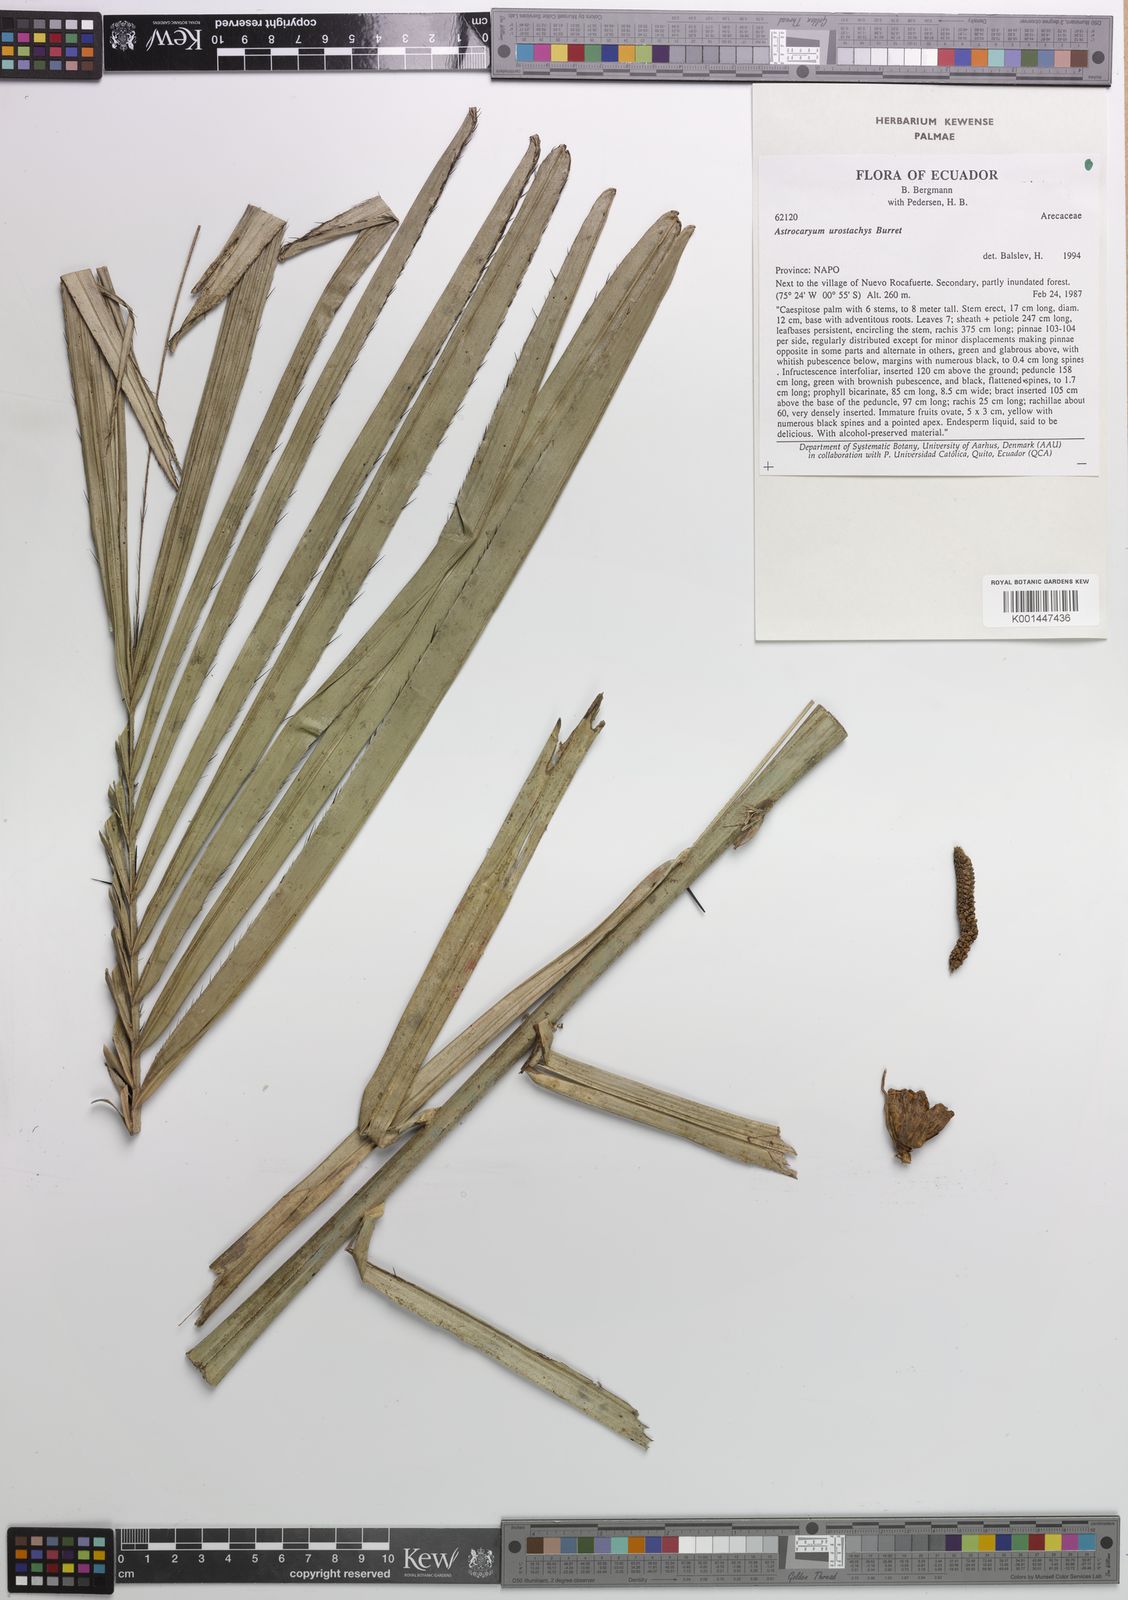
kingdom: Plantae
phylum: Tracheophyta
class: Liliopsida
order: Arecales
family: Arecaceae
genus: Astrocaryum
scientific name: Astrocaryum urostachys
